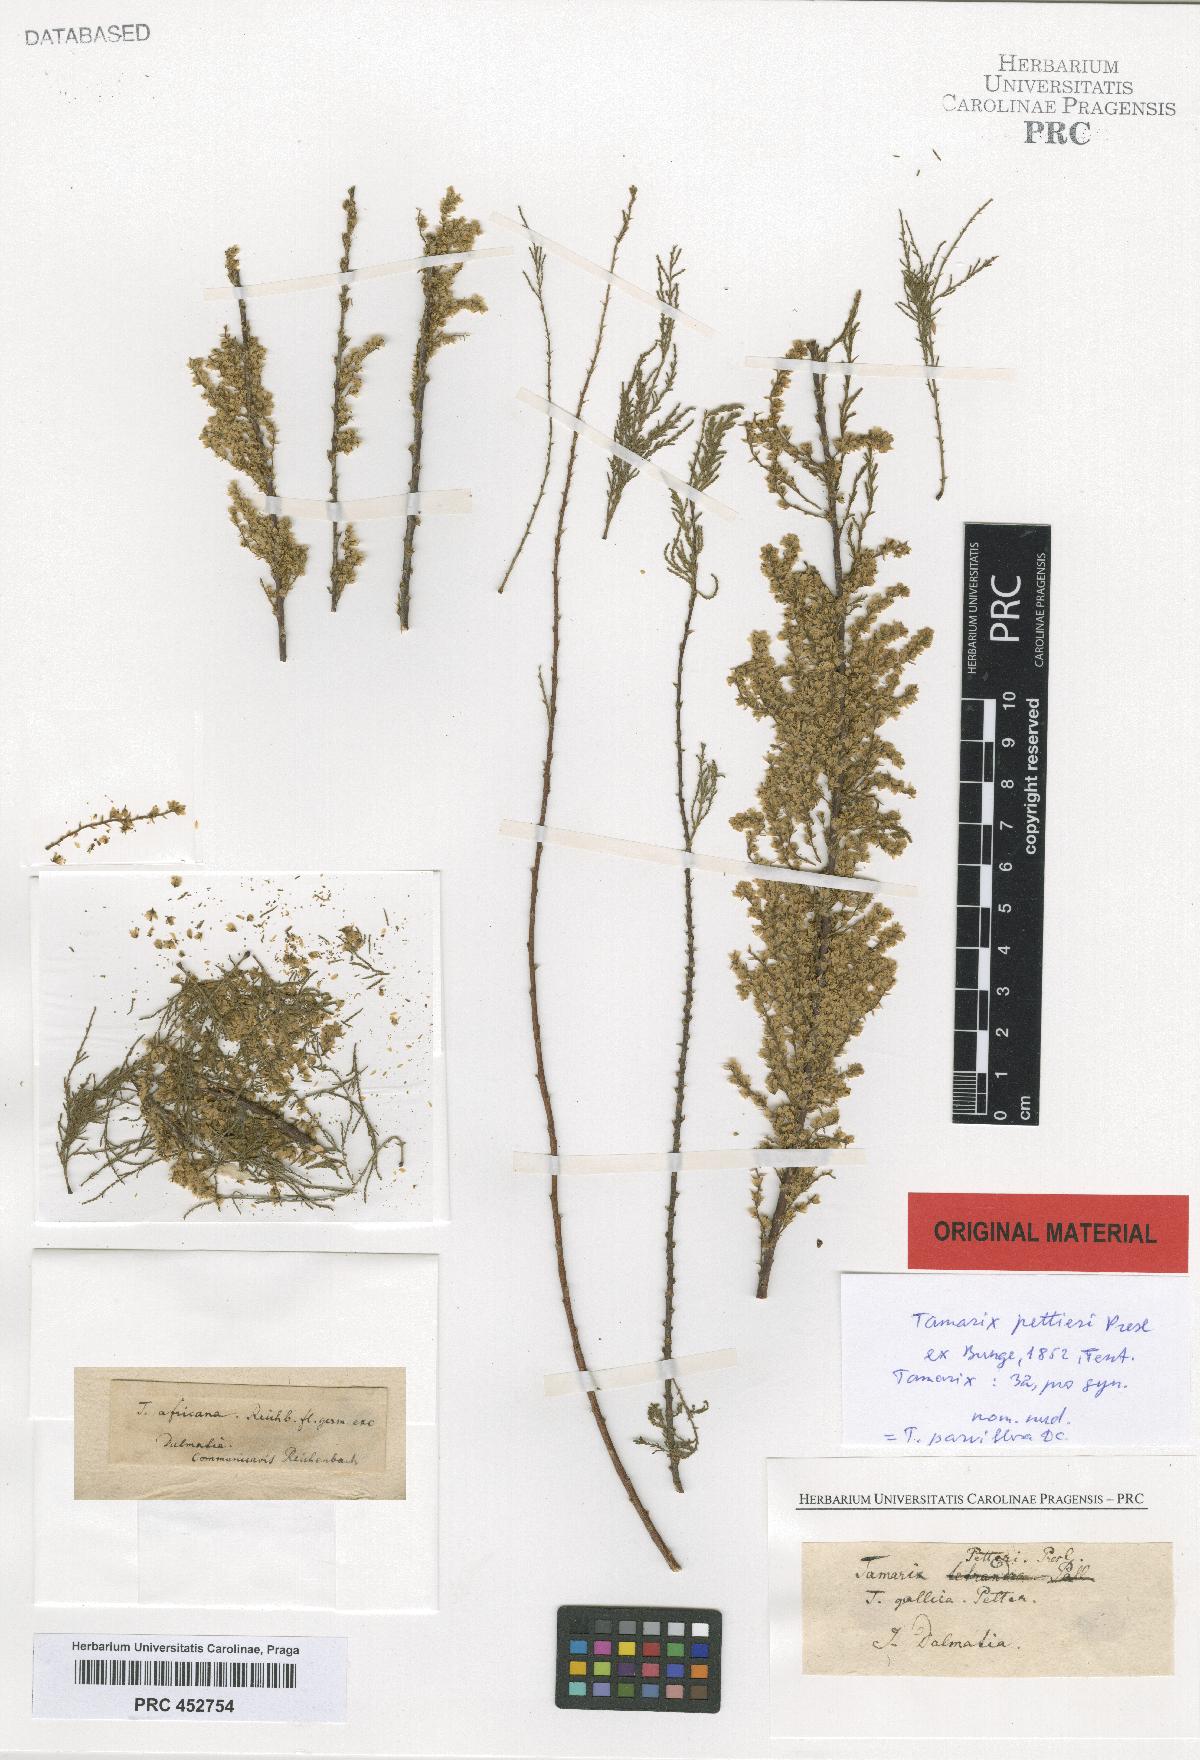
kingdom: Plantae
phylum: Tracheophyta
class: Magnoliopsida
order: Caryophyllales
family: Tamaricaceae
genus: Tamarix
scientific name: Tamarix parviflora
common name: Smallflower tamarisk
